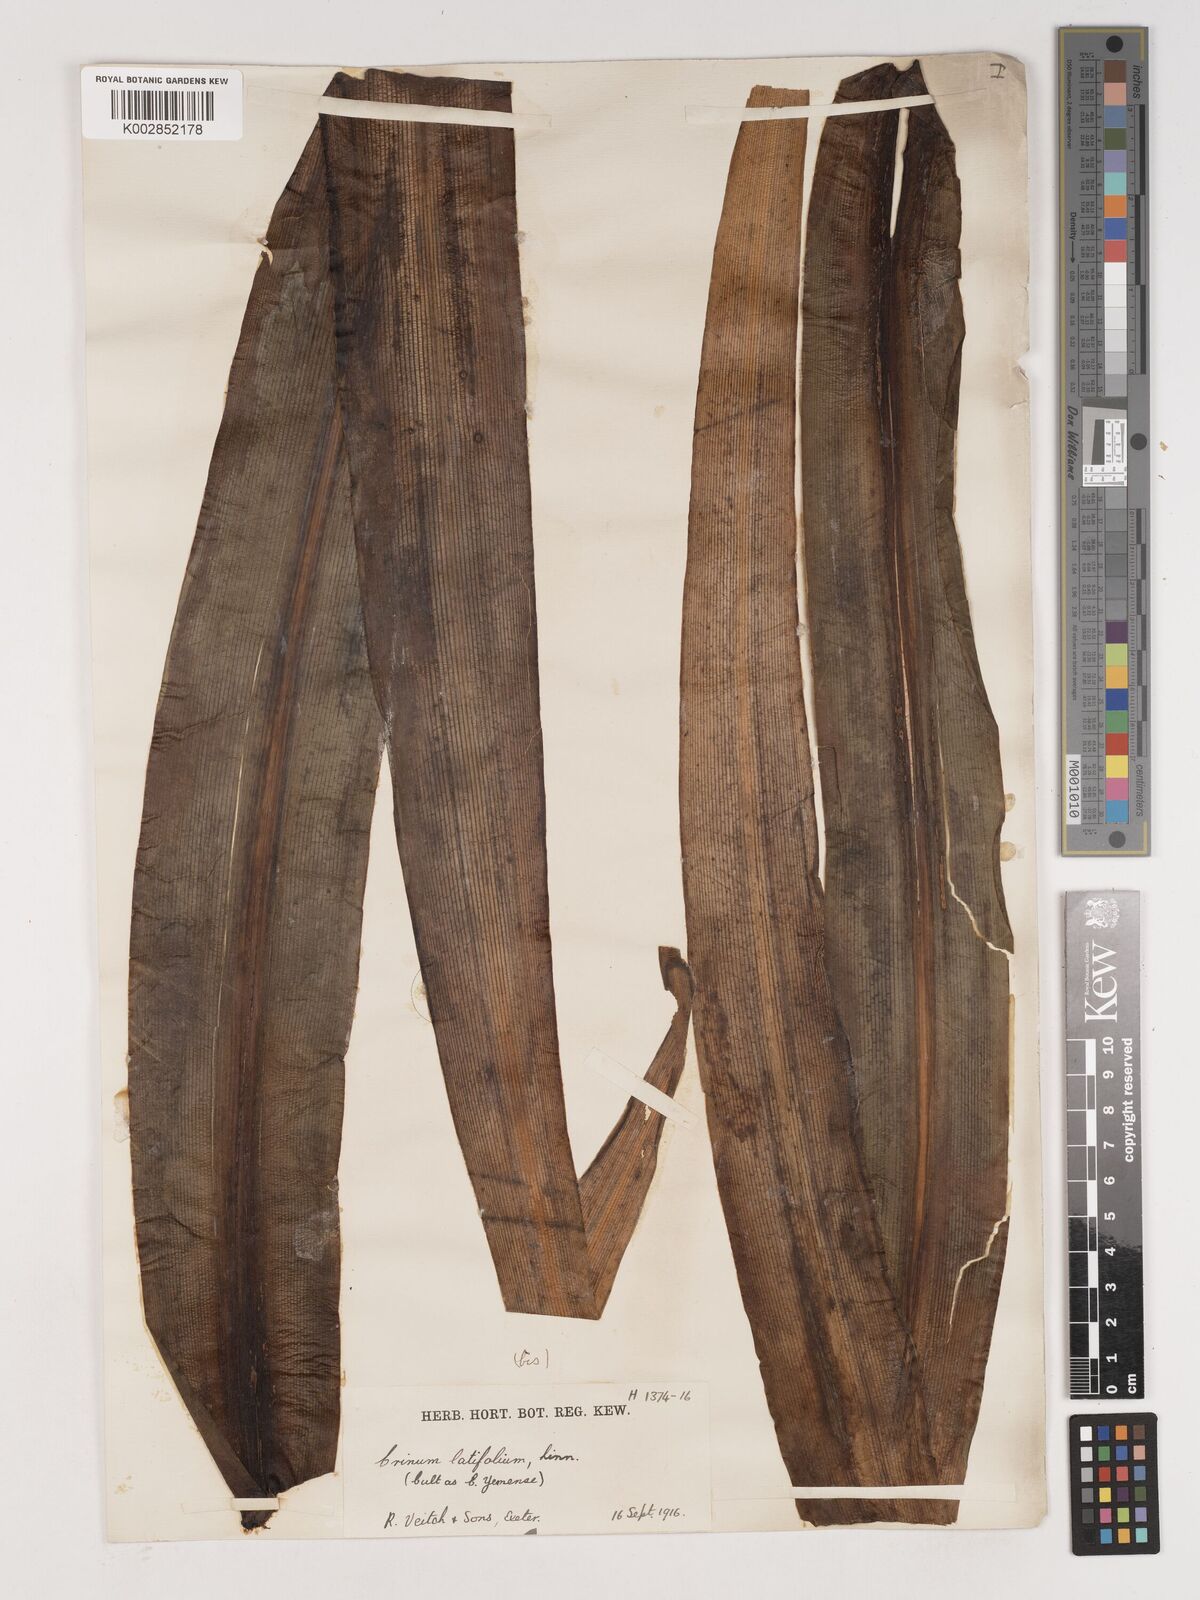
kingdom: Plantae
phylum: Tracheophyta
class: Liliopsida
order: Asparagales
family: Amaryllidaceae
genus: Crinum
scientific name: Crinum latifolium
